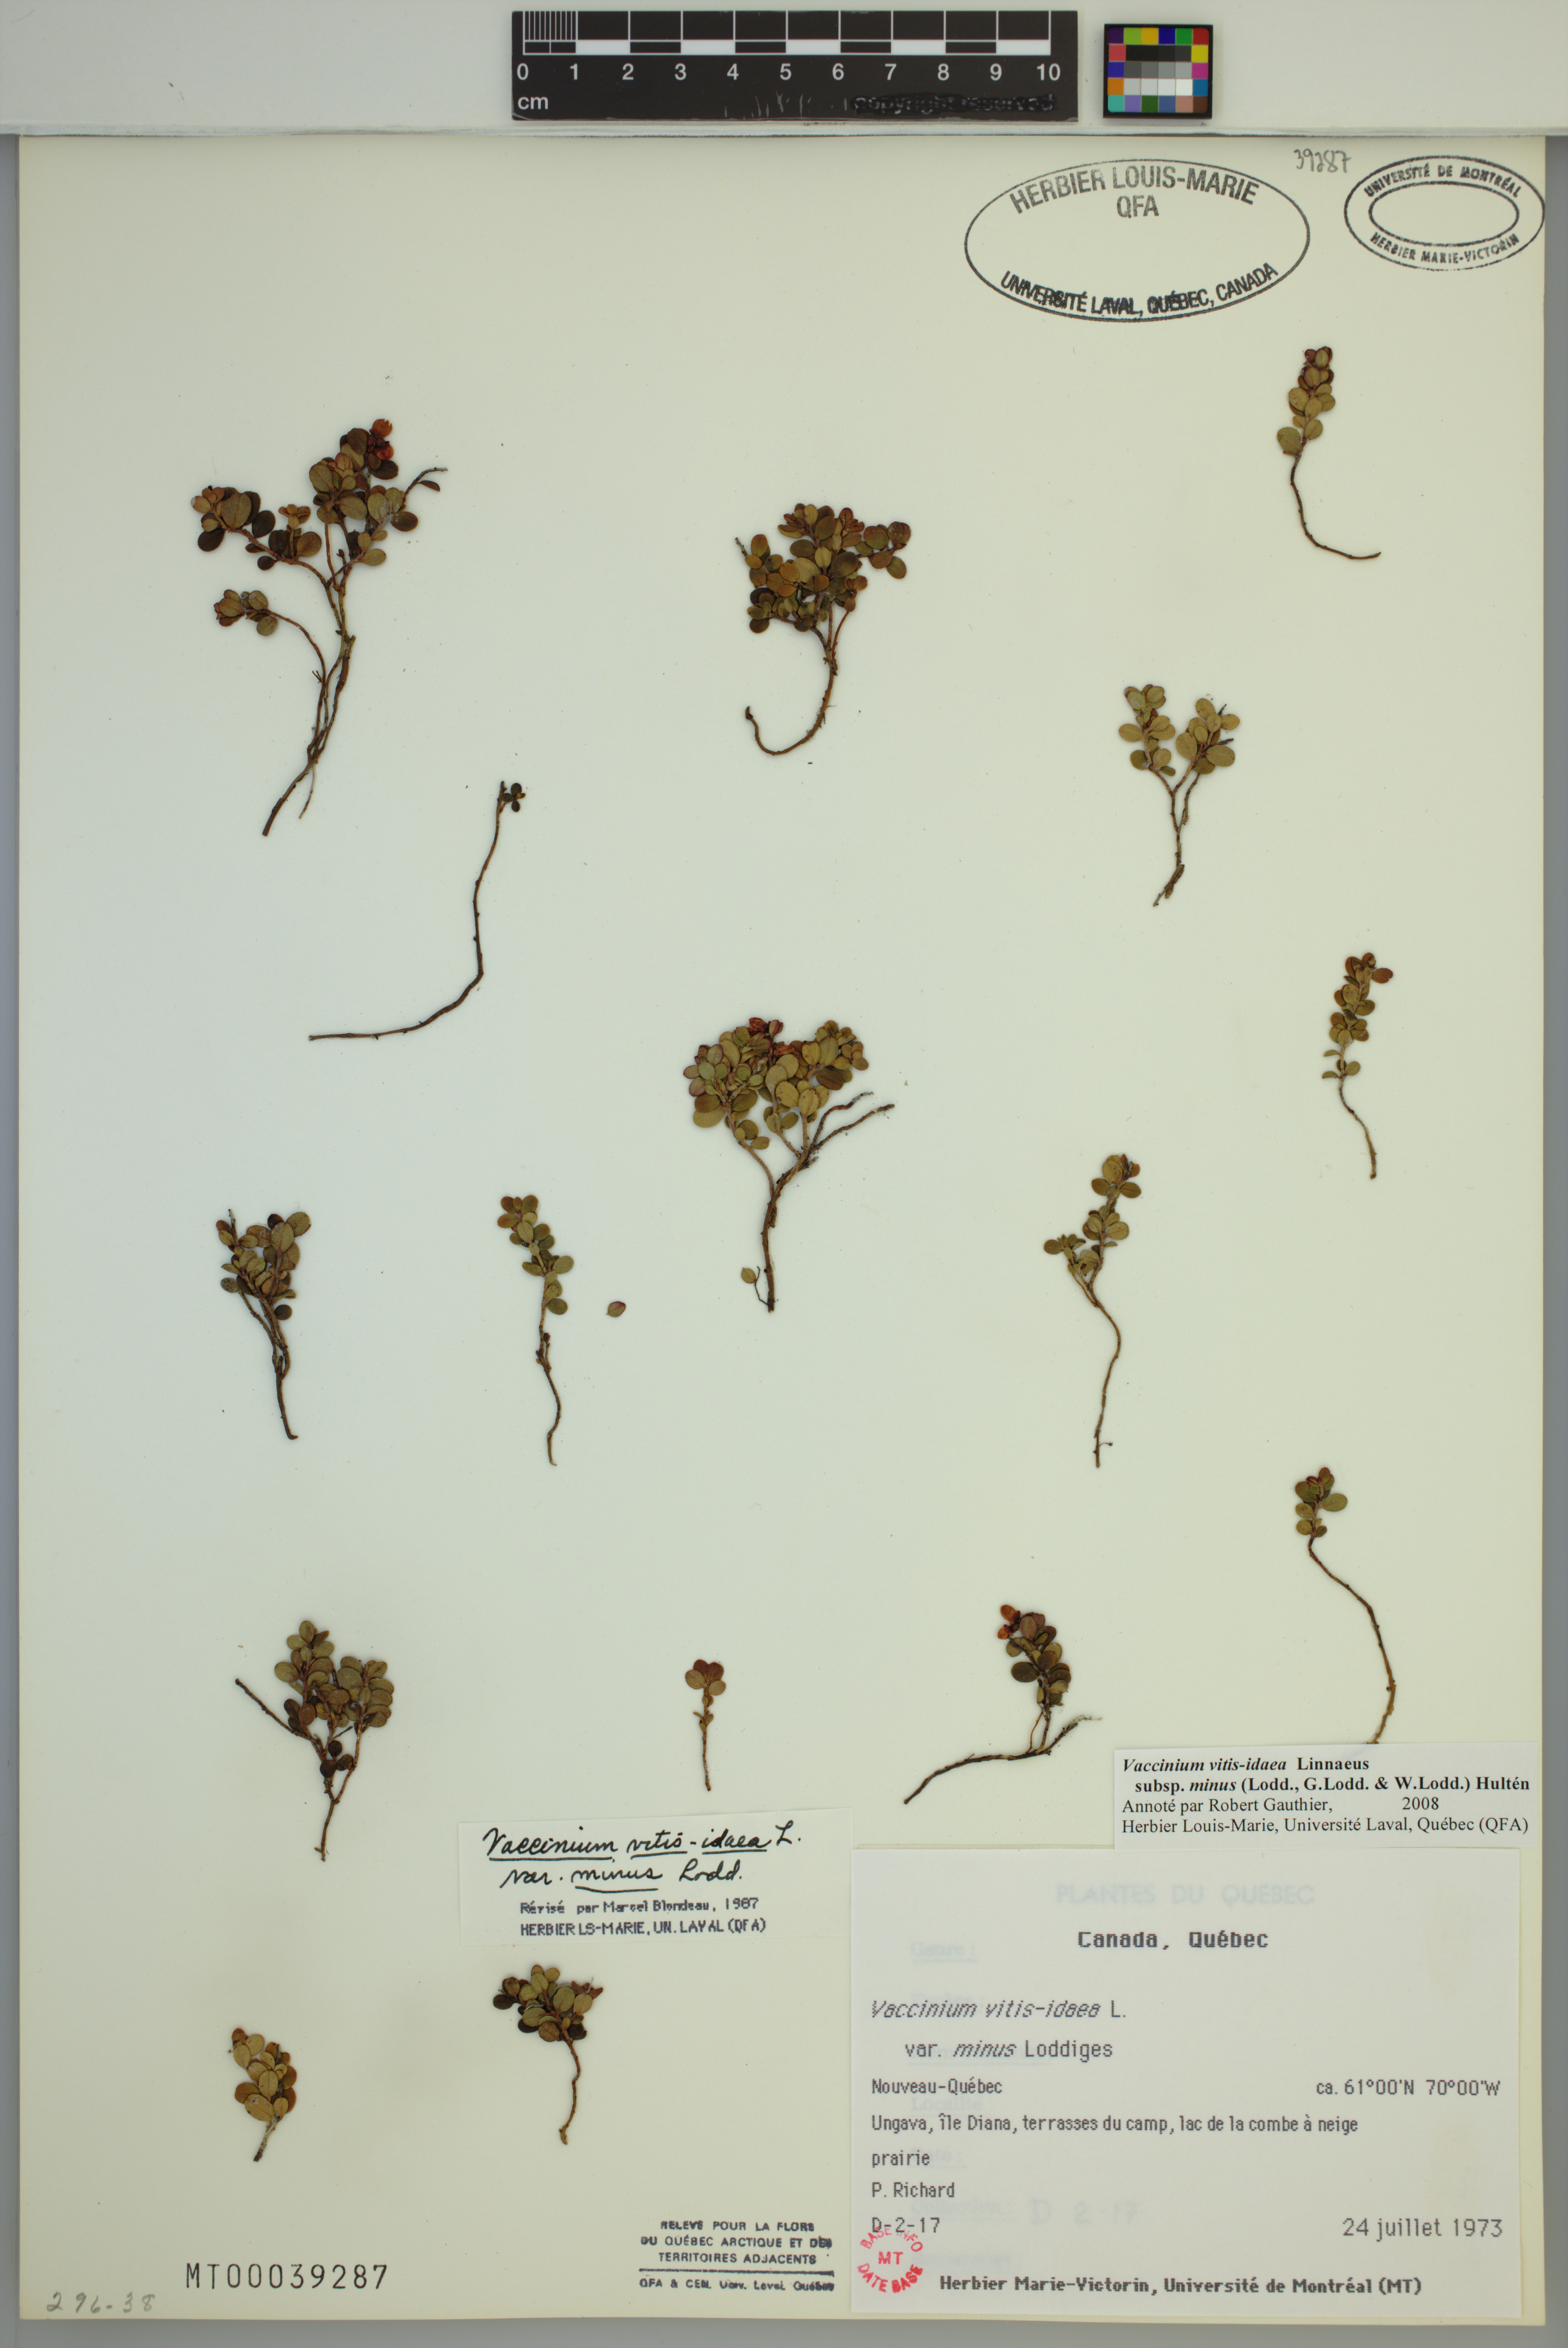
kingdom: Plantae
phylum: Tracheophyta
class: Magnoliopsida
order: Ericales
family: Ericaceae
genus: Vaccinium
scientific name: Vaccinium vitis-idaea
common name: Cowberry
